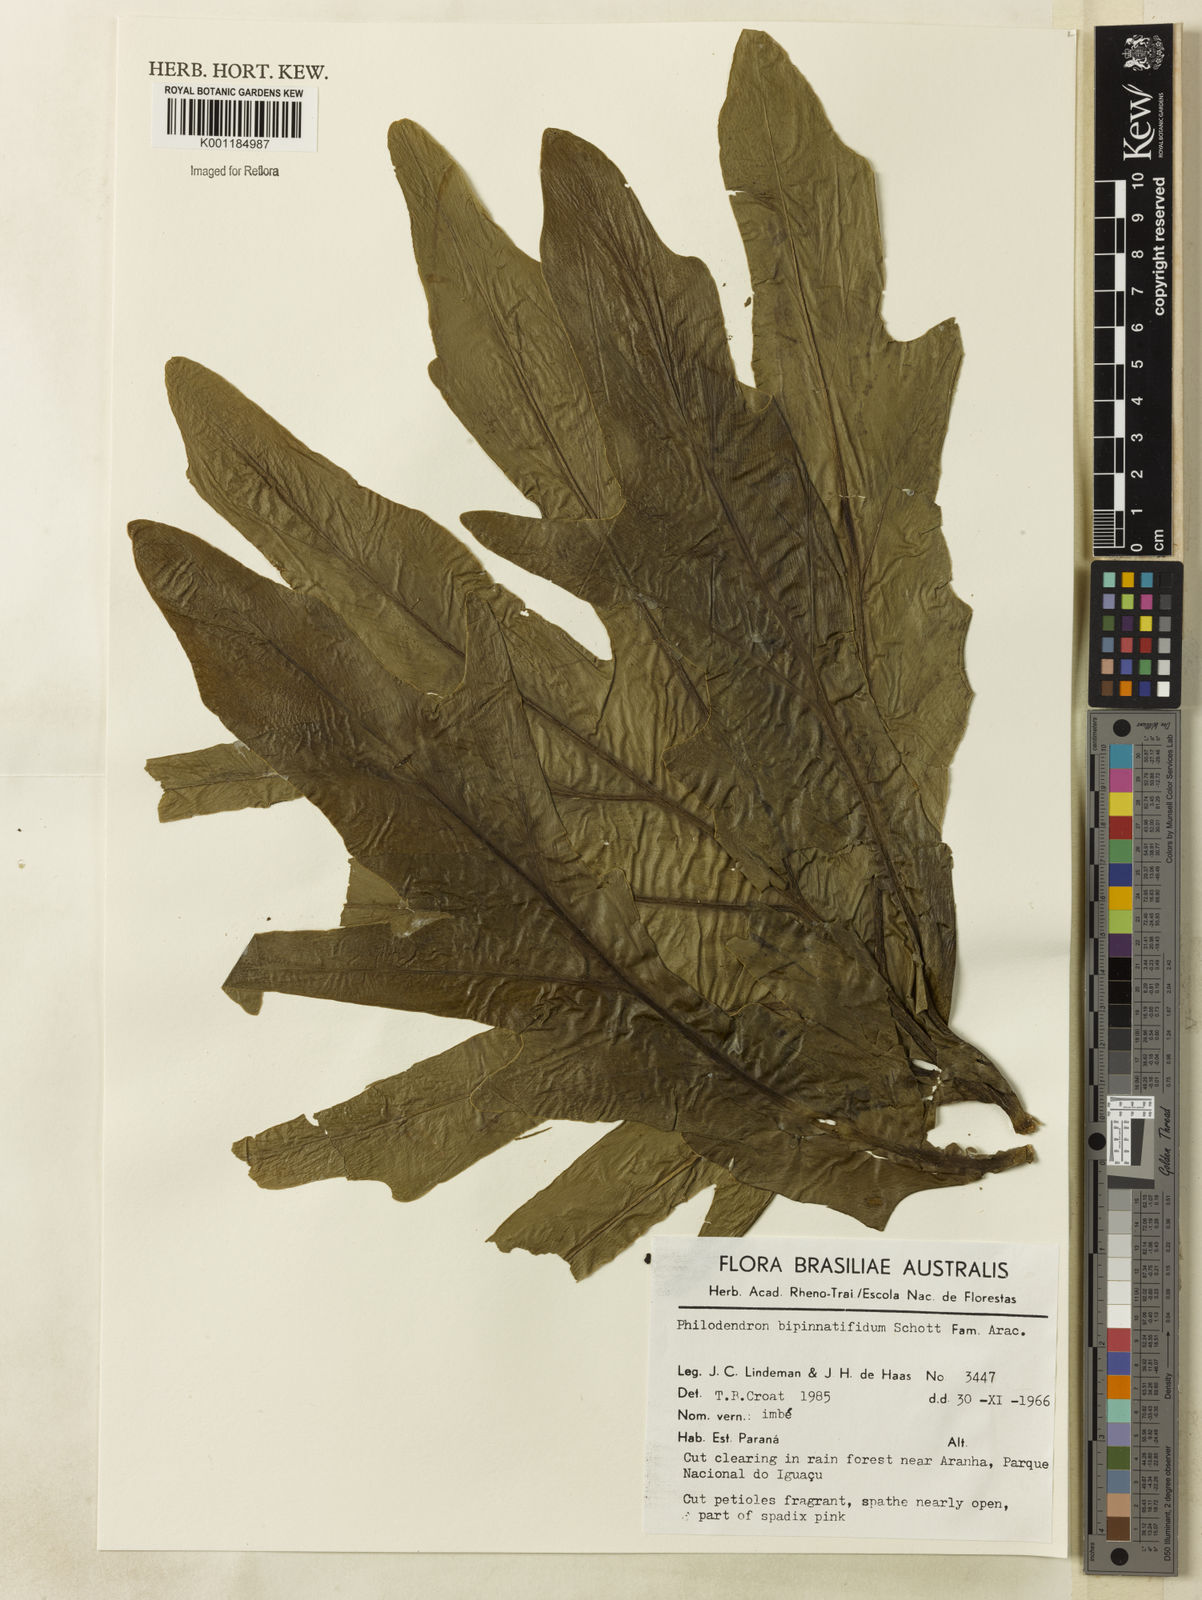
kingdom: Plantae
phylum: Tracheophyta
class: Liliopsida
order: Alismatales
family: Araceae
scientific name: Araceae
